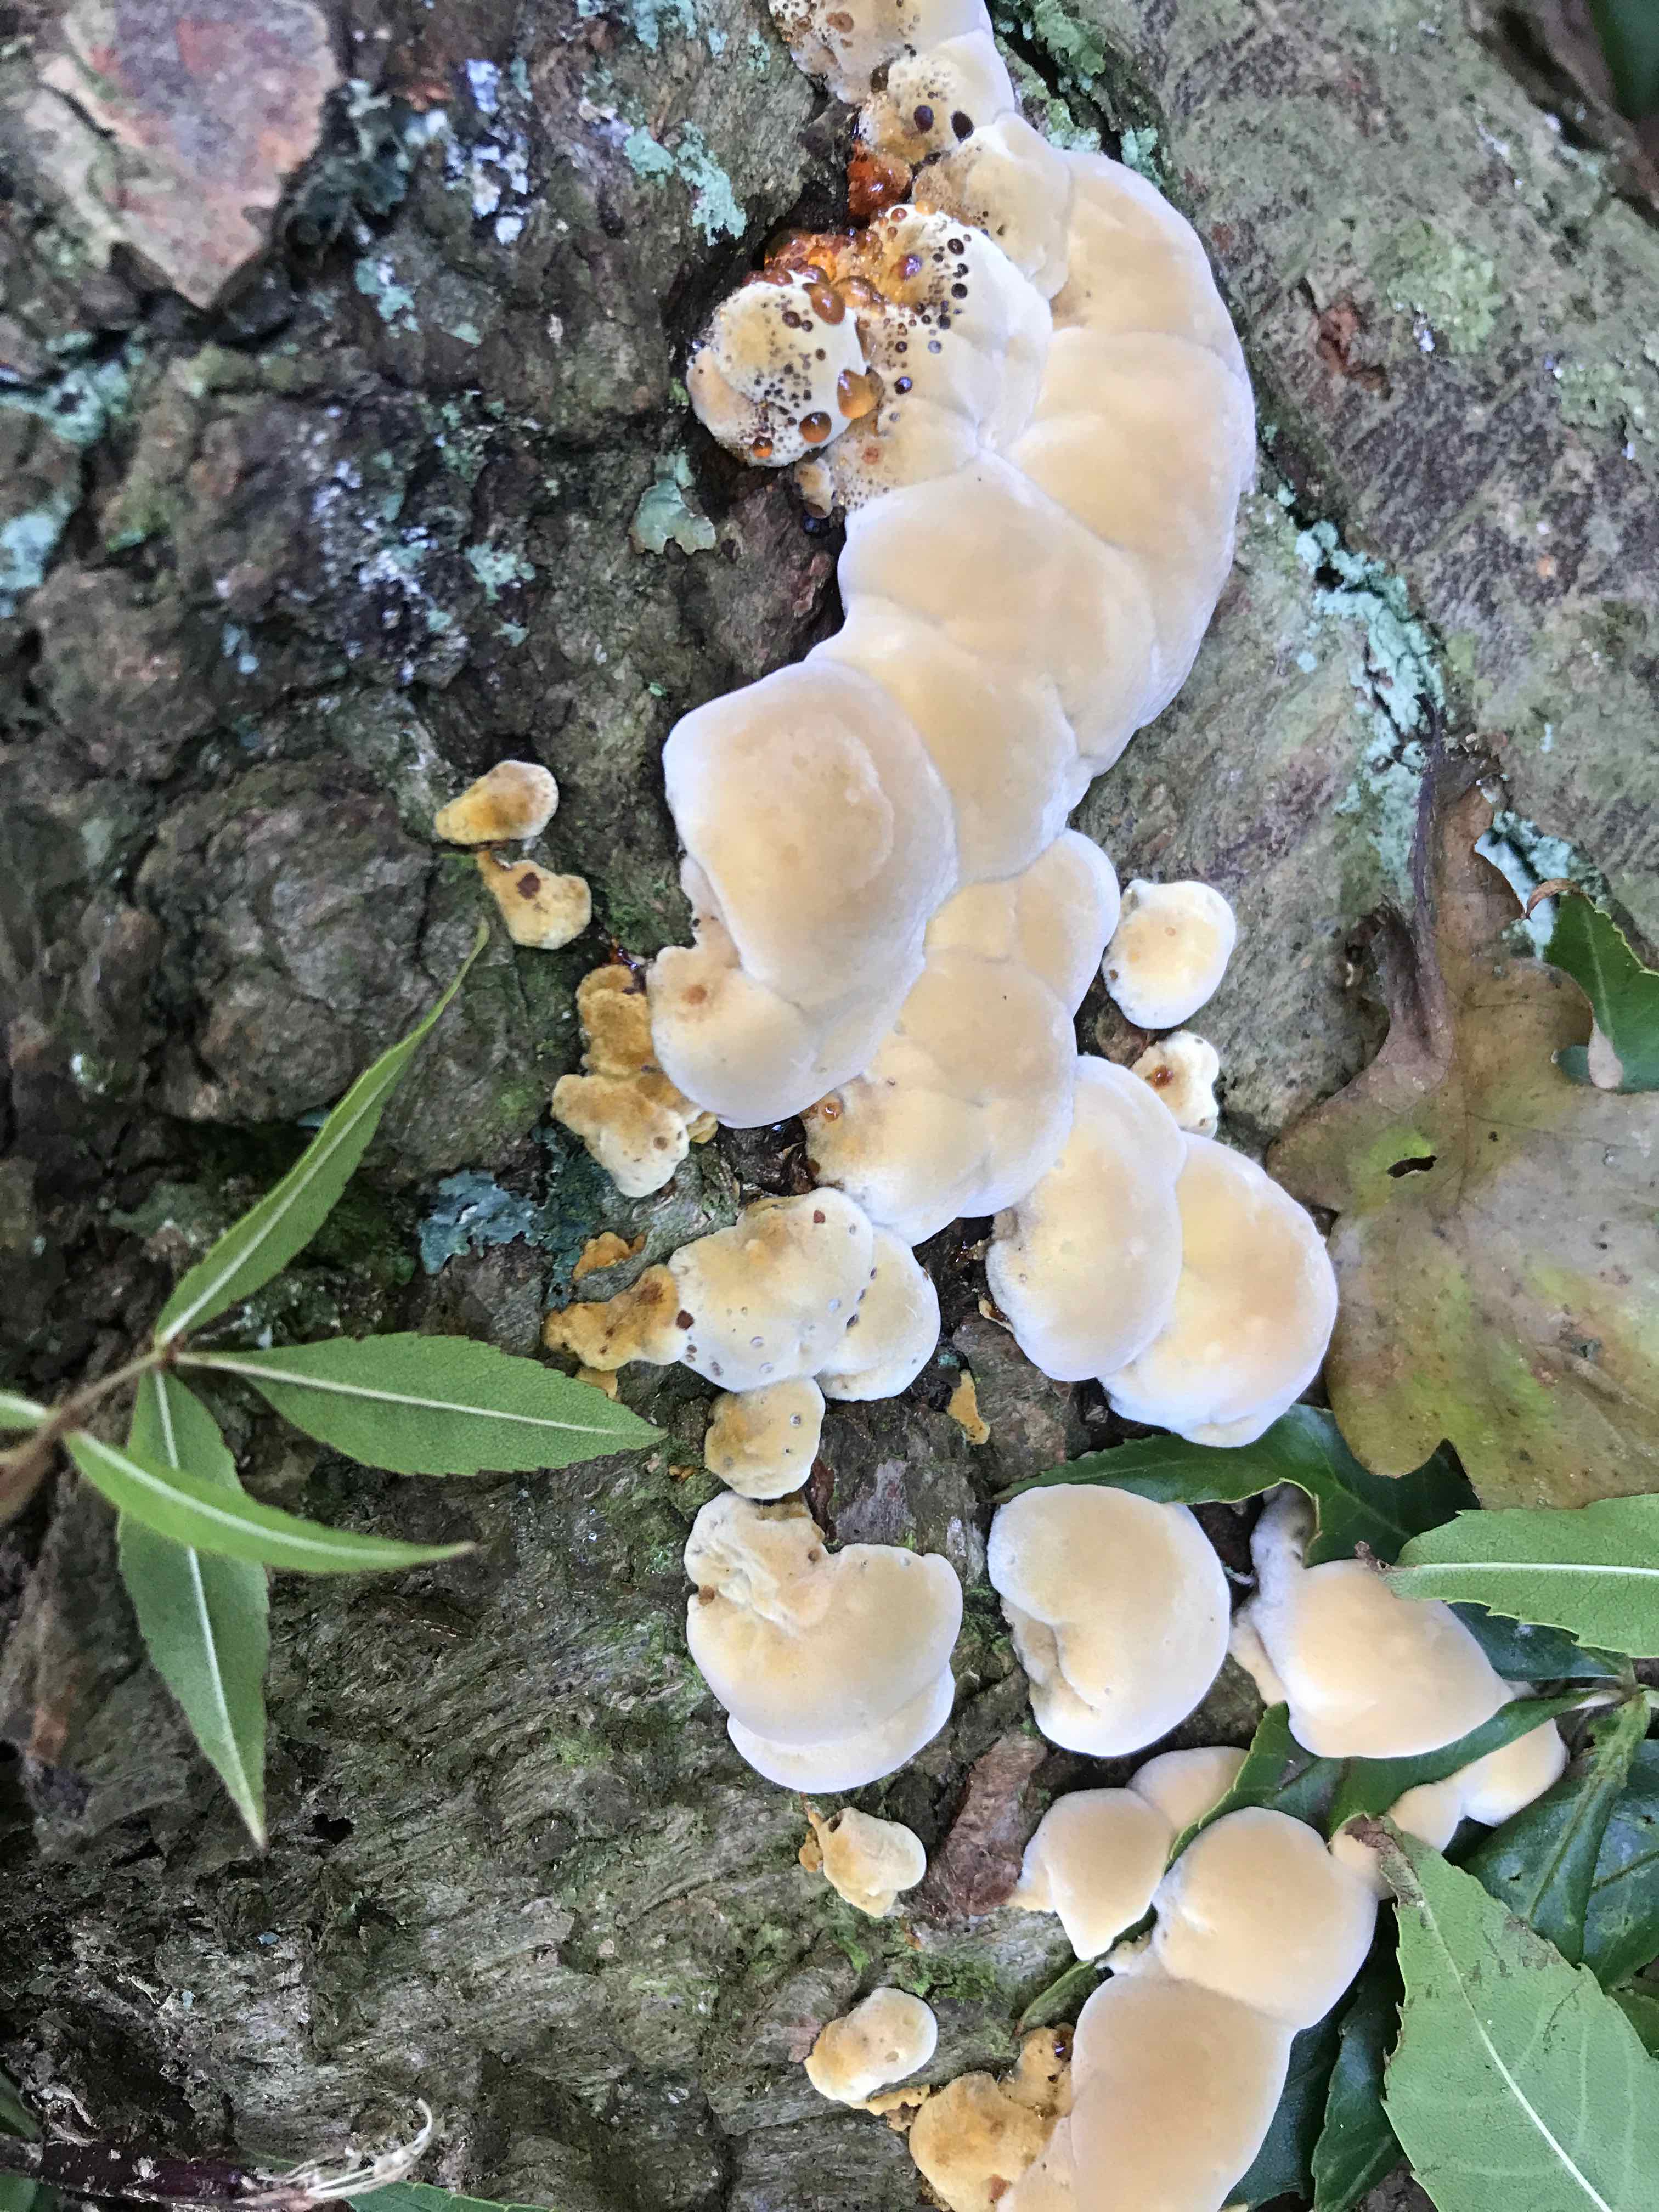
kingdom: Fungi
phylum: Basidiomycota
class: Agaricomycetes
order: Hymenochaetales
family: Hymenochaetaceae
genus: Xanthoporia
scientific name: Xanthoporia radiata
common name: elle-spejlporesvamp
